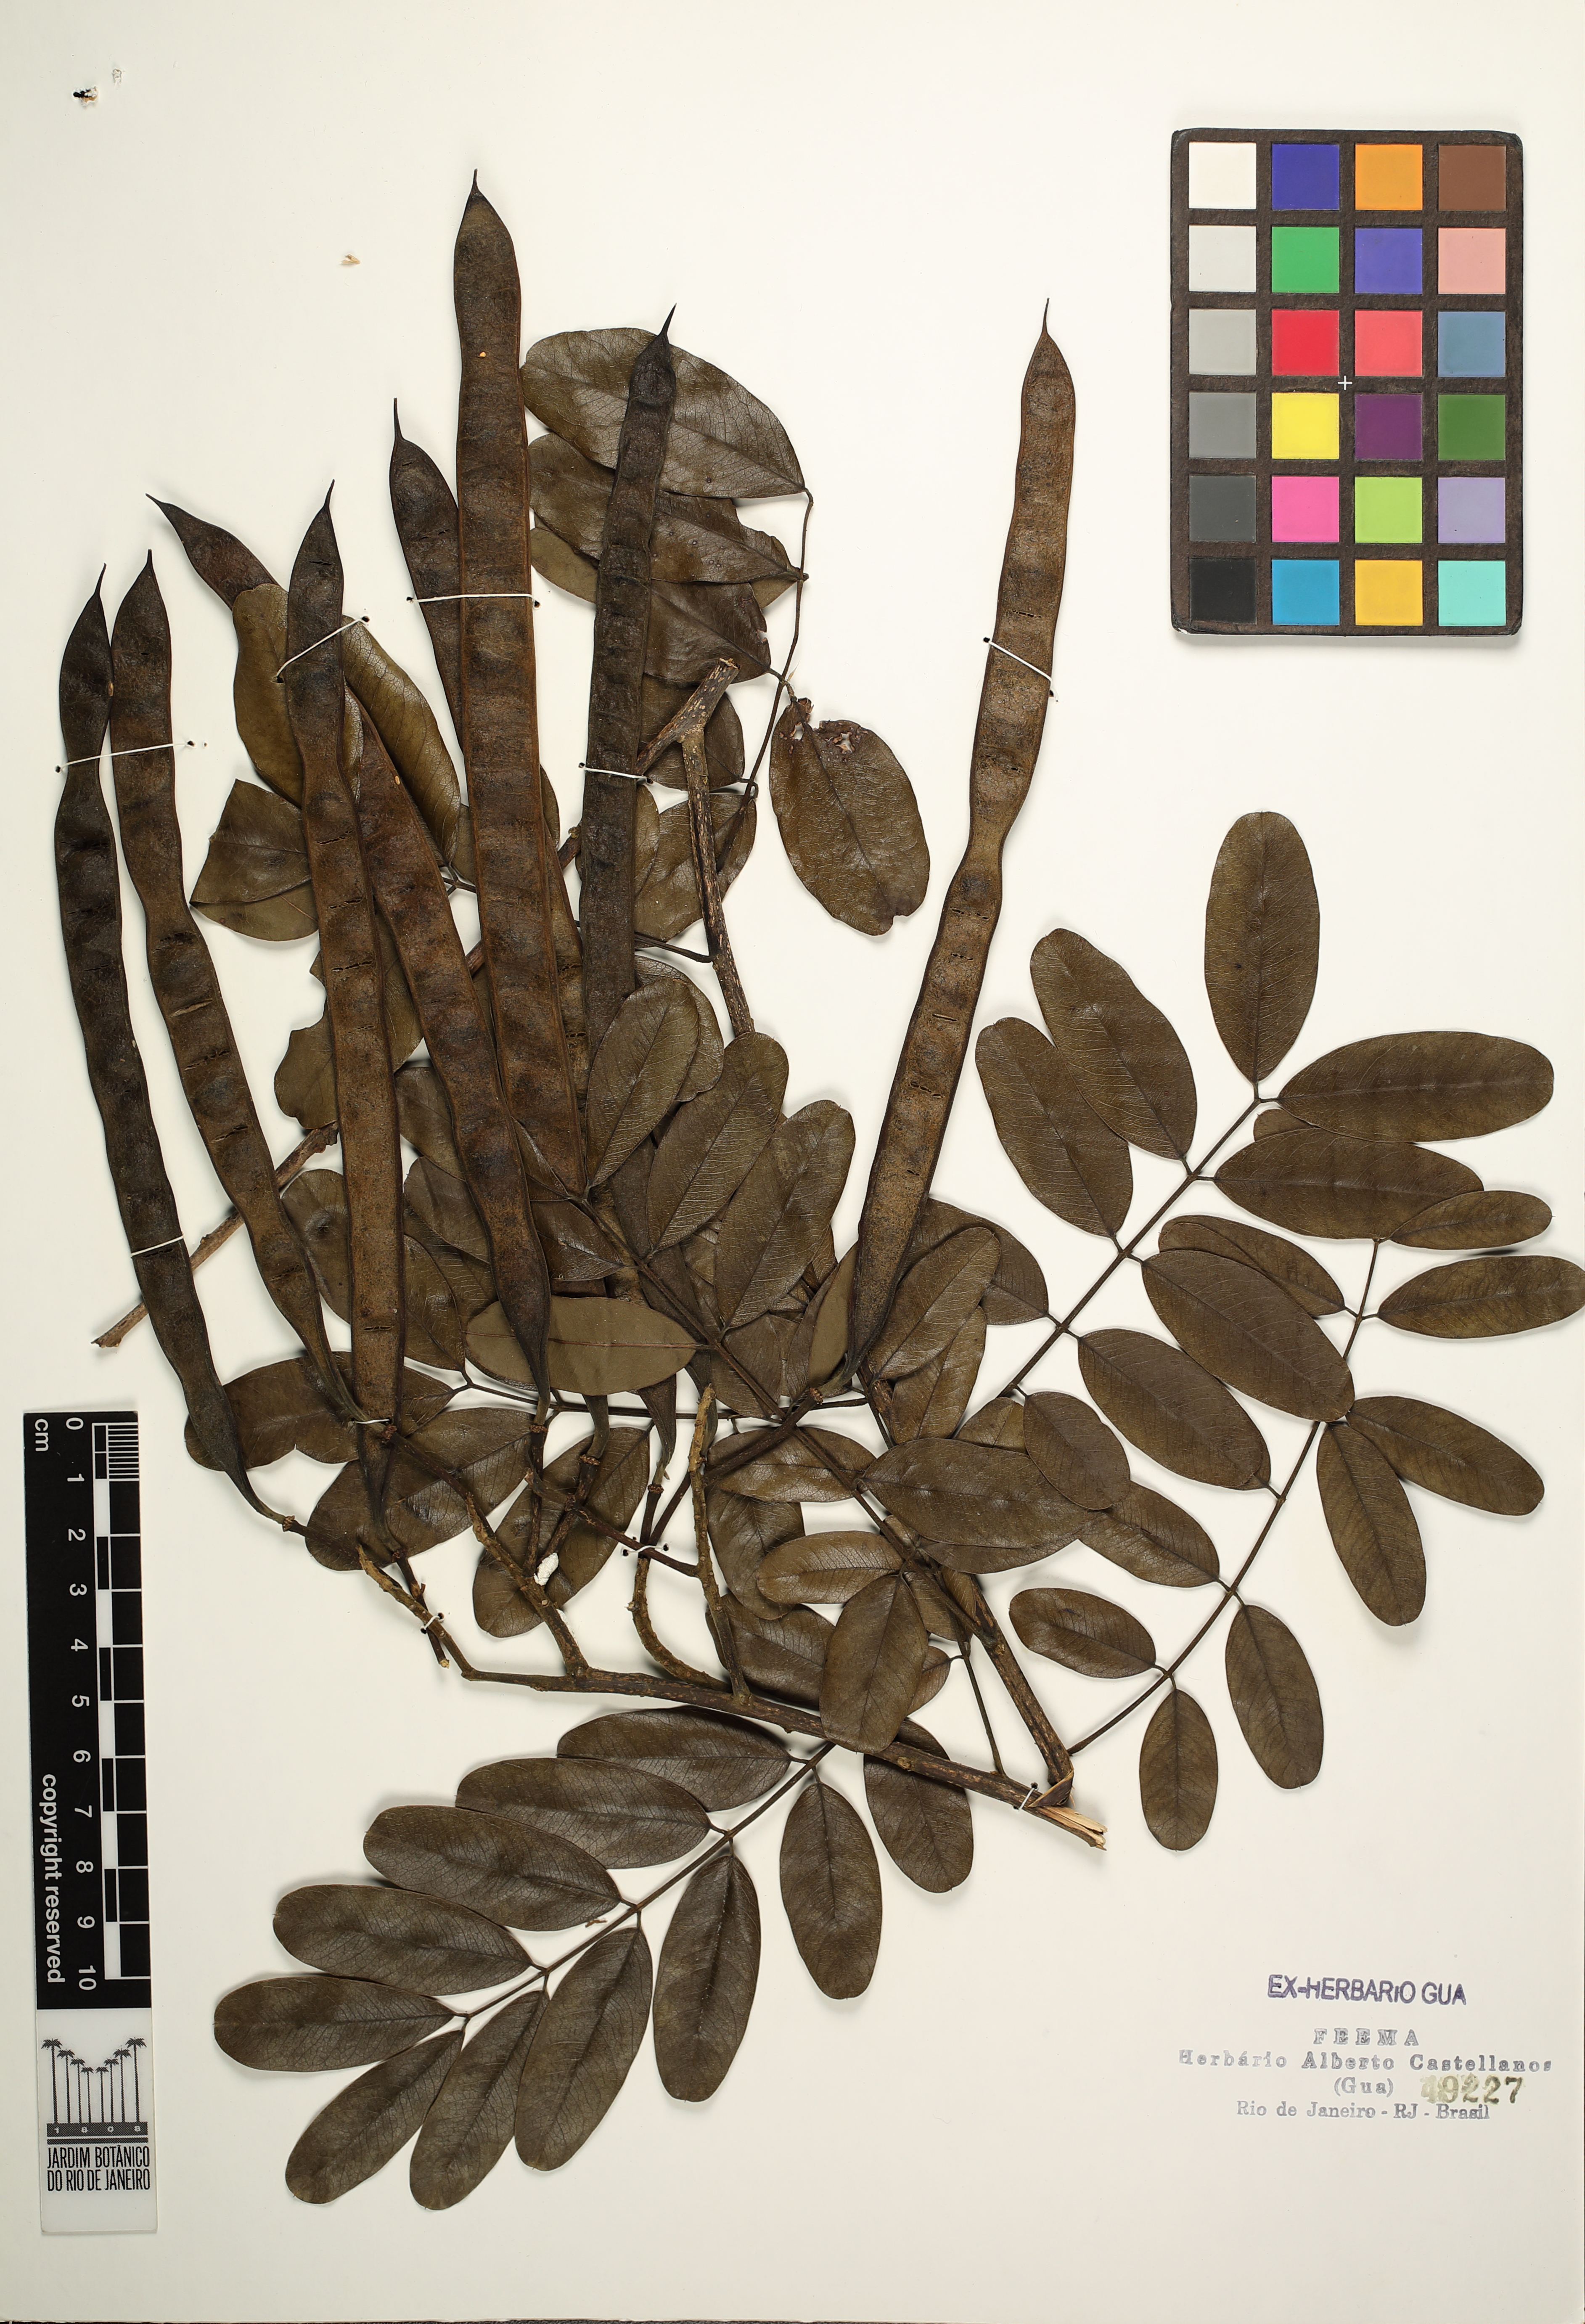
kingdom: Plantae
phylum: Tracheophyta
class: Magnoliopsida
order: Fabales
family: Fabaceae
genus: Senna
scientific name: Senna siamea
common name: Siamese cassia
